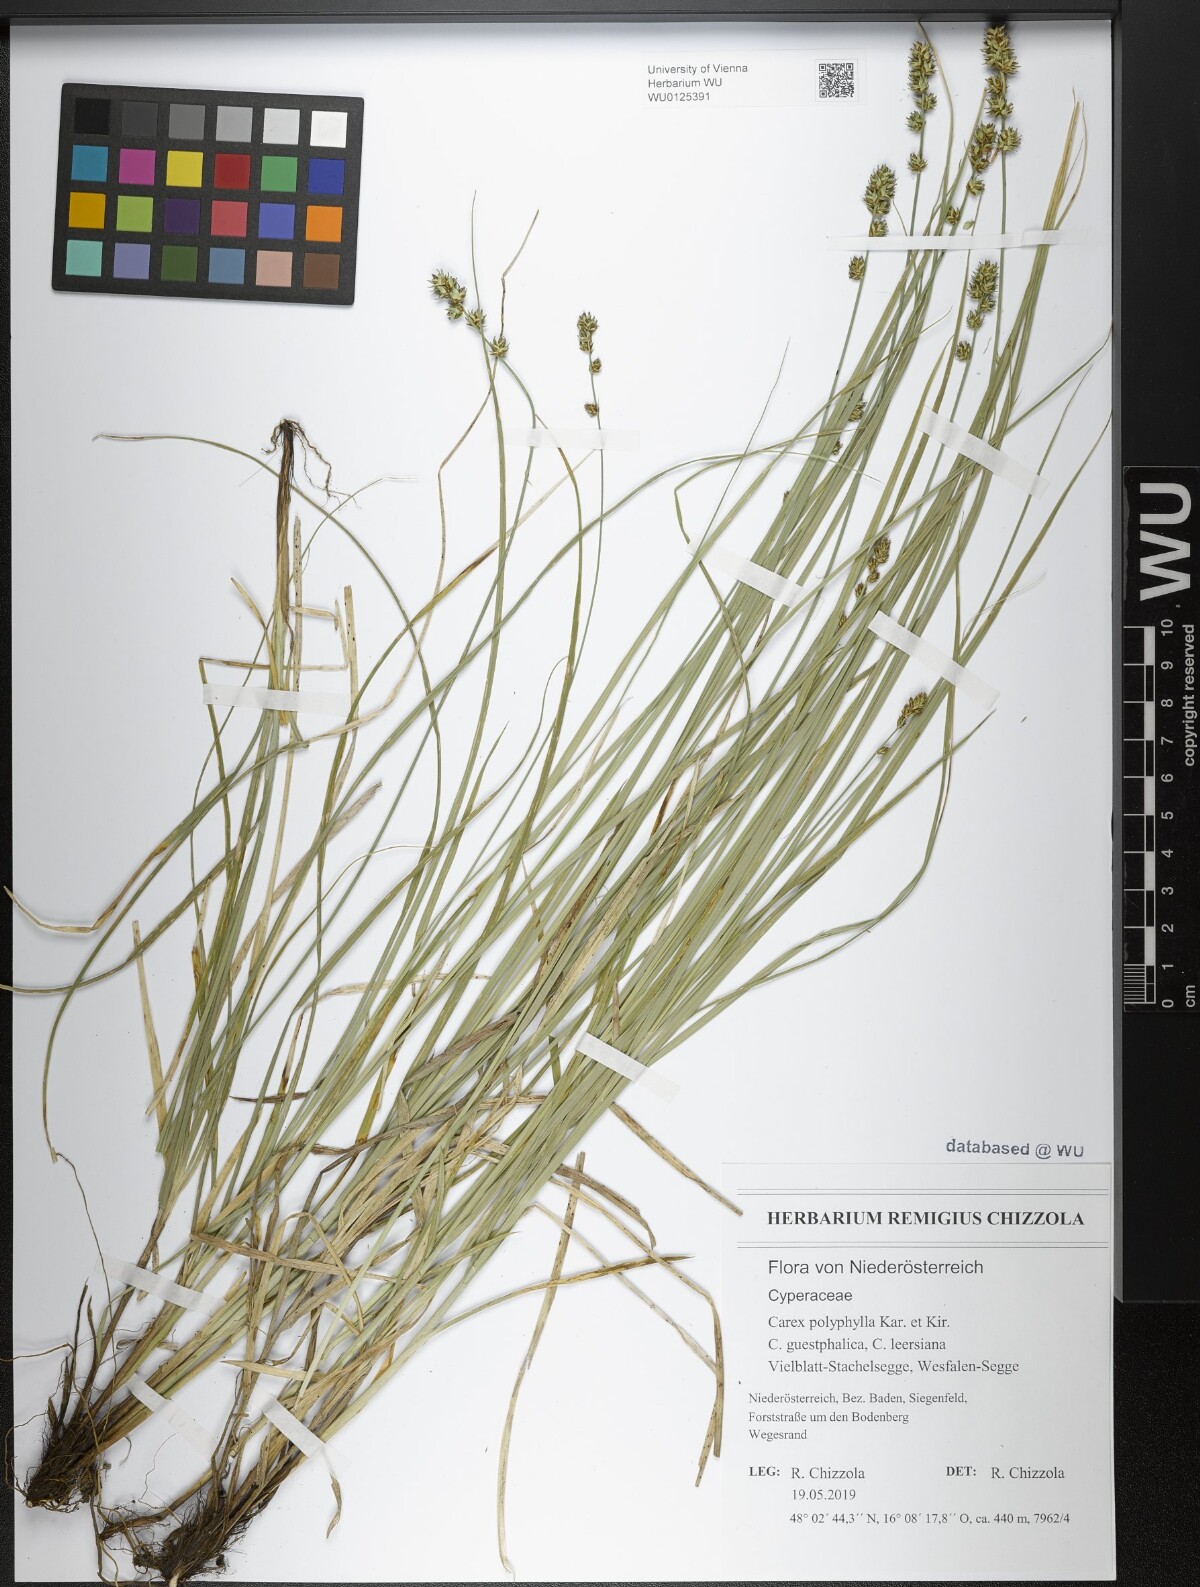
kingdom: Plantae
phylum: Tracheophyta
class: Liliopsida
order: Poales
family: Cyperaceae
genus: Carex
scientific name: Carex polyphylla
